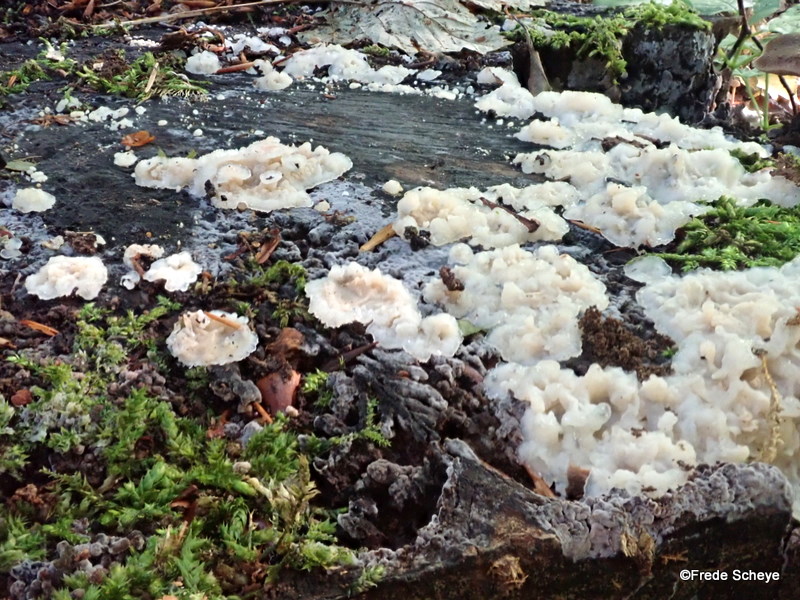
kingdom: Fungi
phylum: Basidiomycota
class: Agaricomycetes
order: Polyporales
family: Meruliaceae
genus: Phlebia
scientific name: Phlebia tremellosa
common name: bævrende åresvamp
